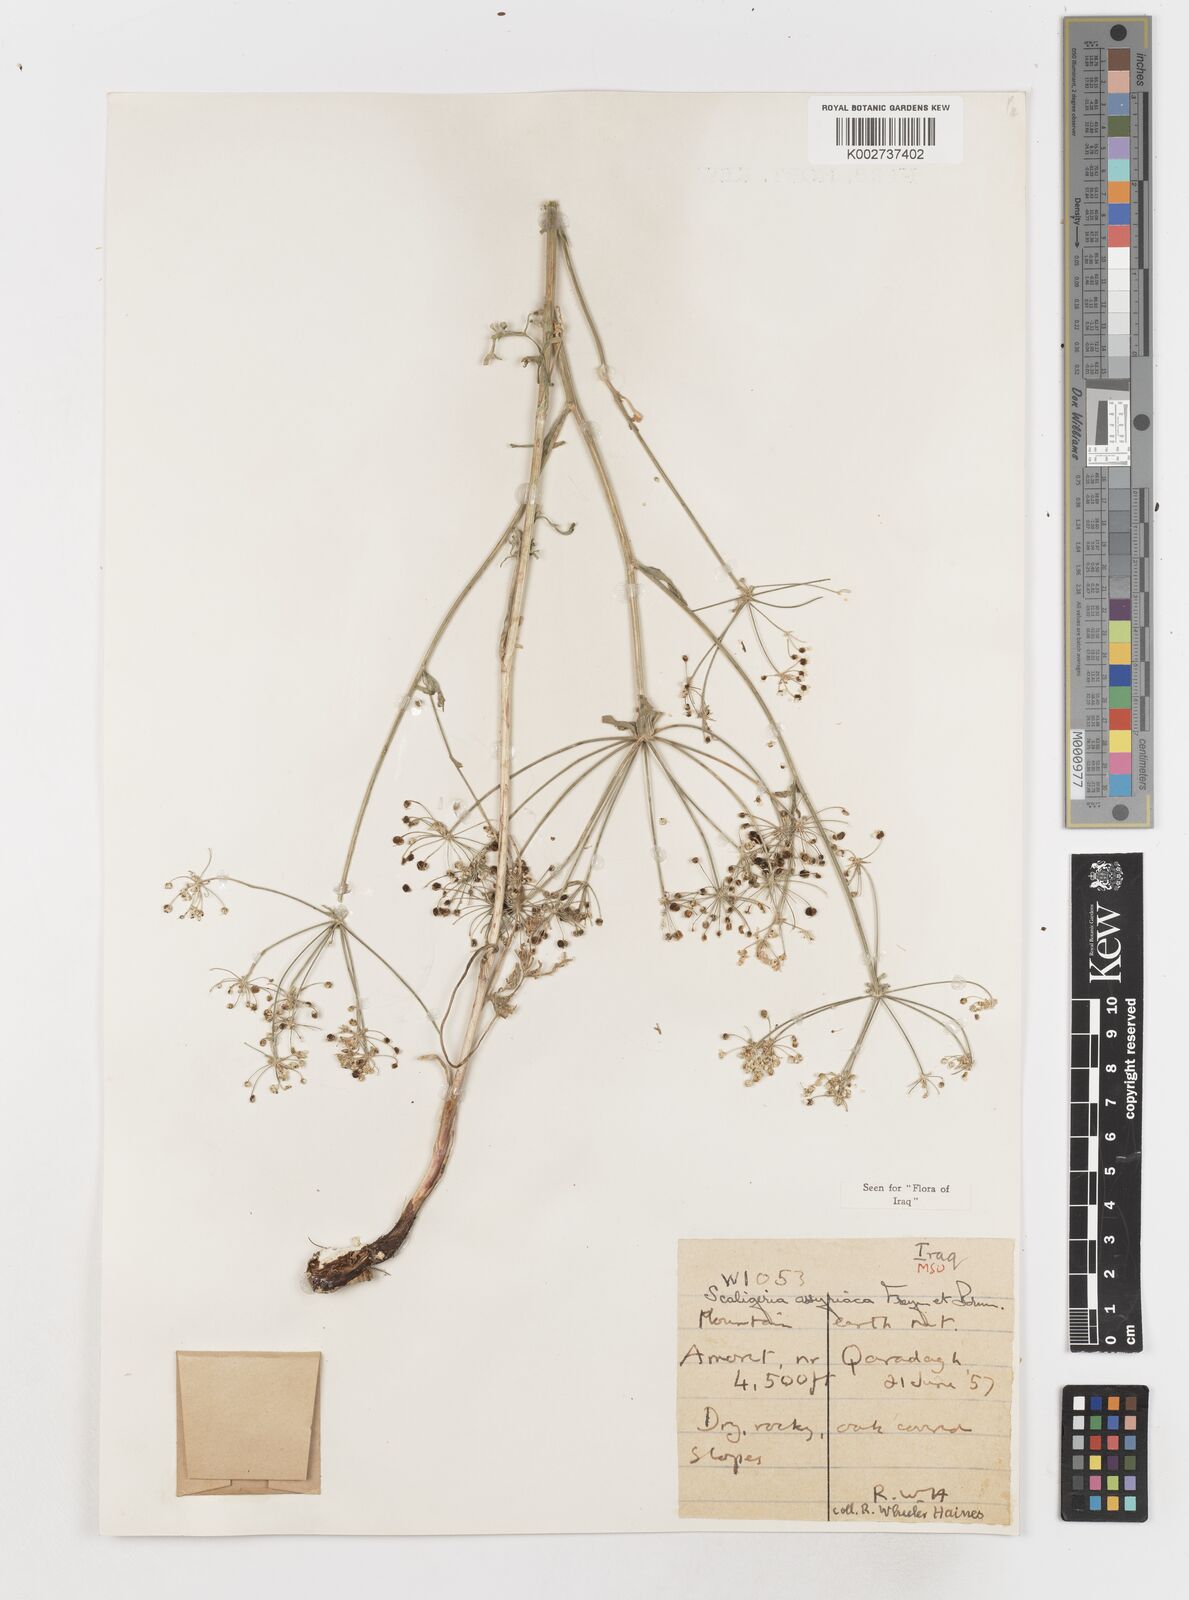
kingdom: Plantae
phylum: Tracheophyta
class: Magnoliopsida
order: Apiales
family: Apiaceae
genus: Korshinskia
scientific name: Korshinskia assyriaca
